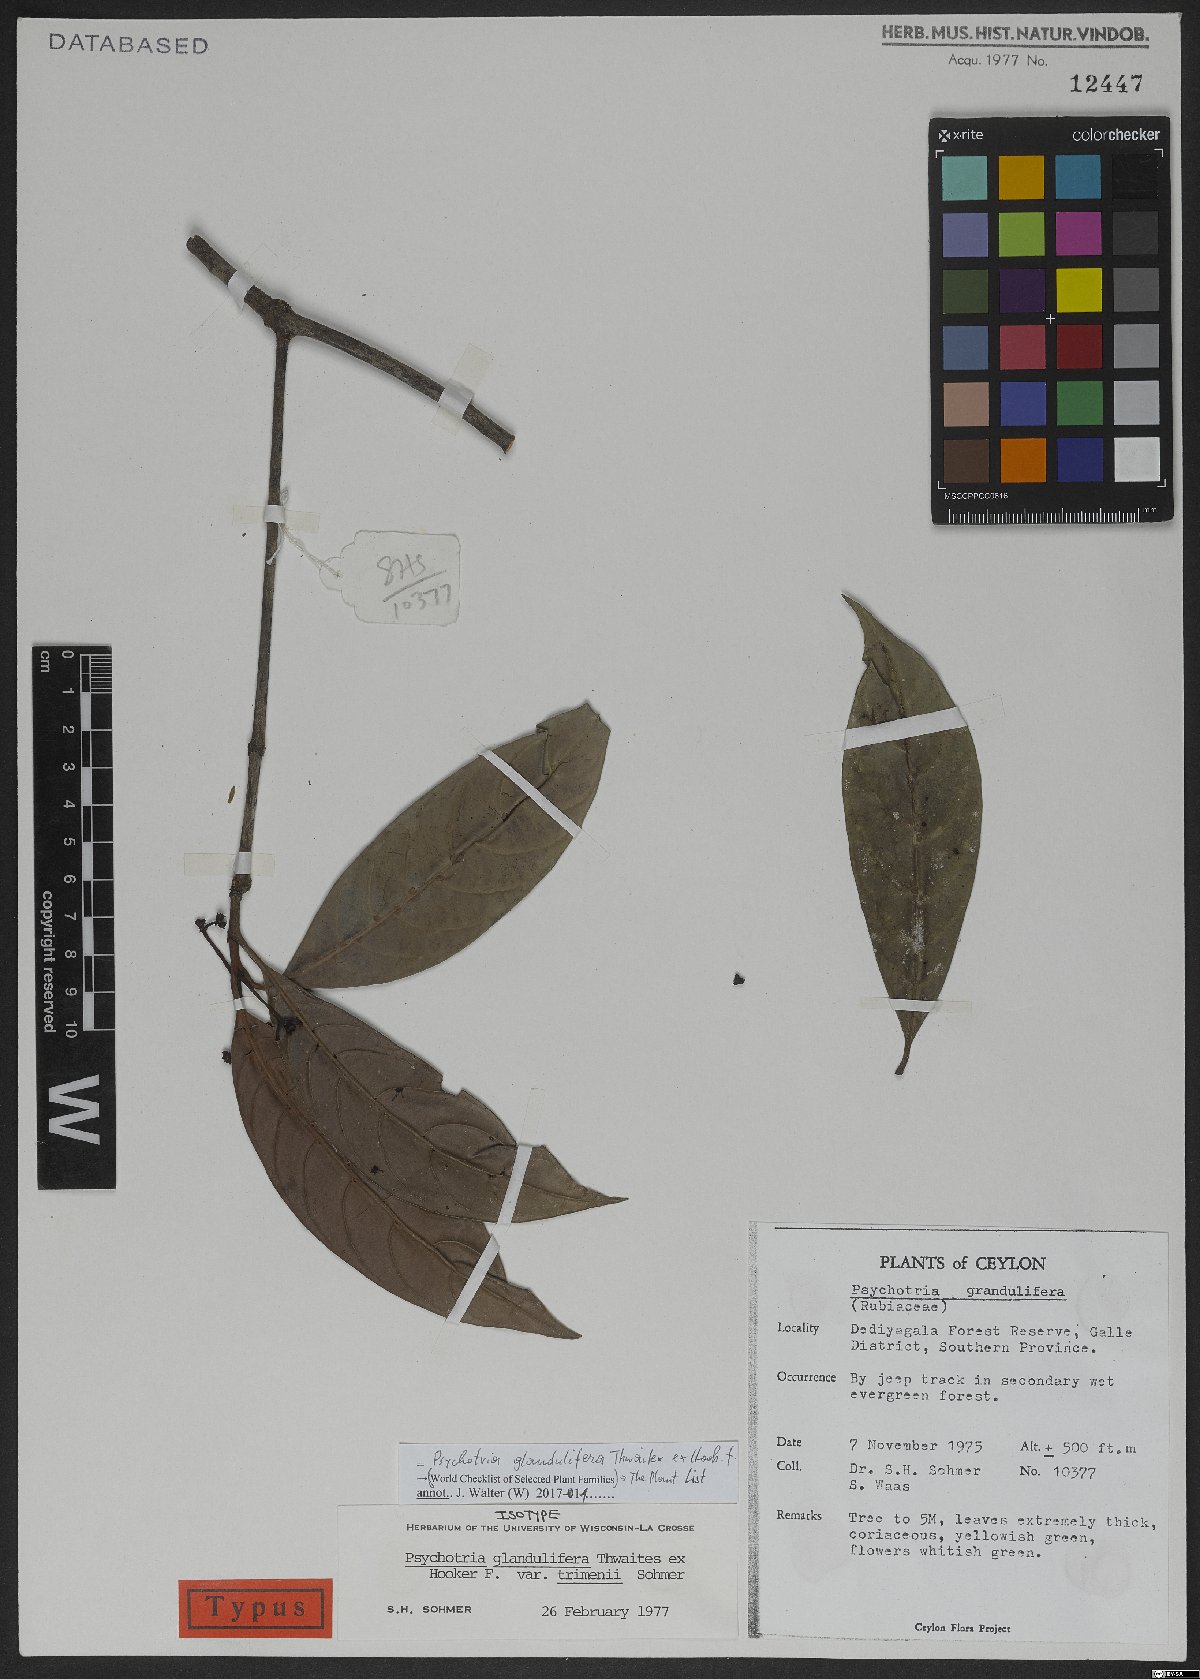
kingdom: Plantae
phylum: Tracheophyta
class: Magnoliopsida
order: Gentianales
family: Rubiaceae
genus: Psychotria
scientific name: Psychotria glandulifera
